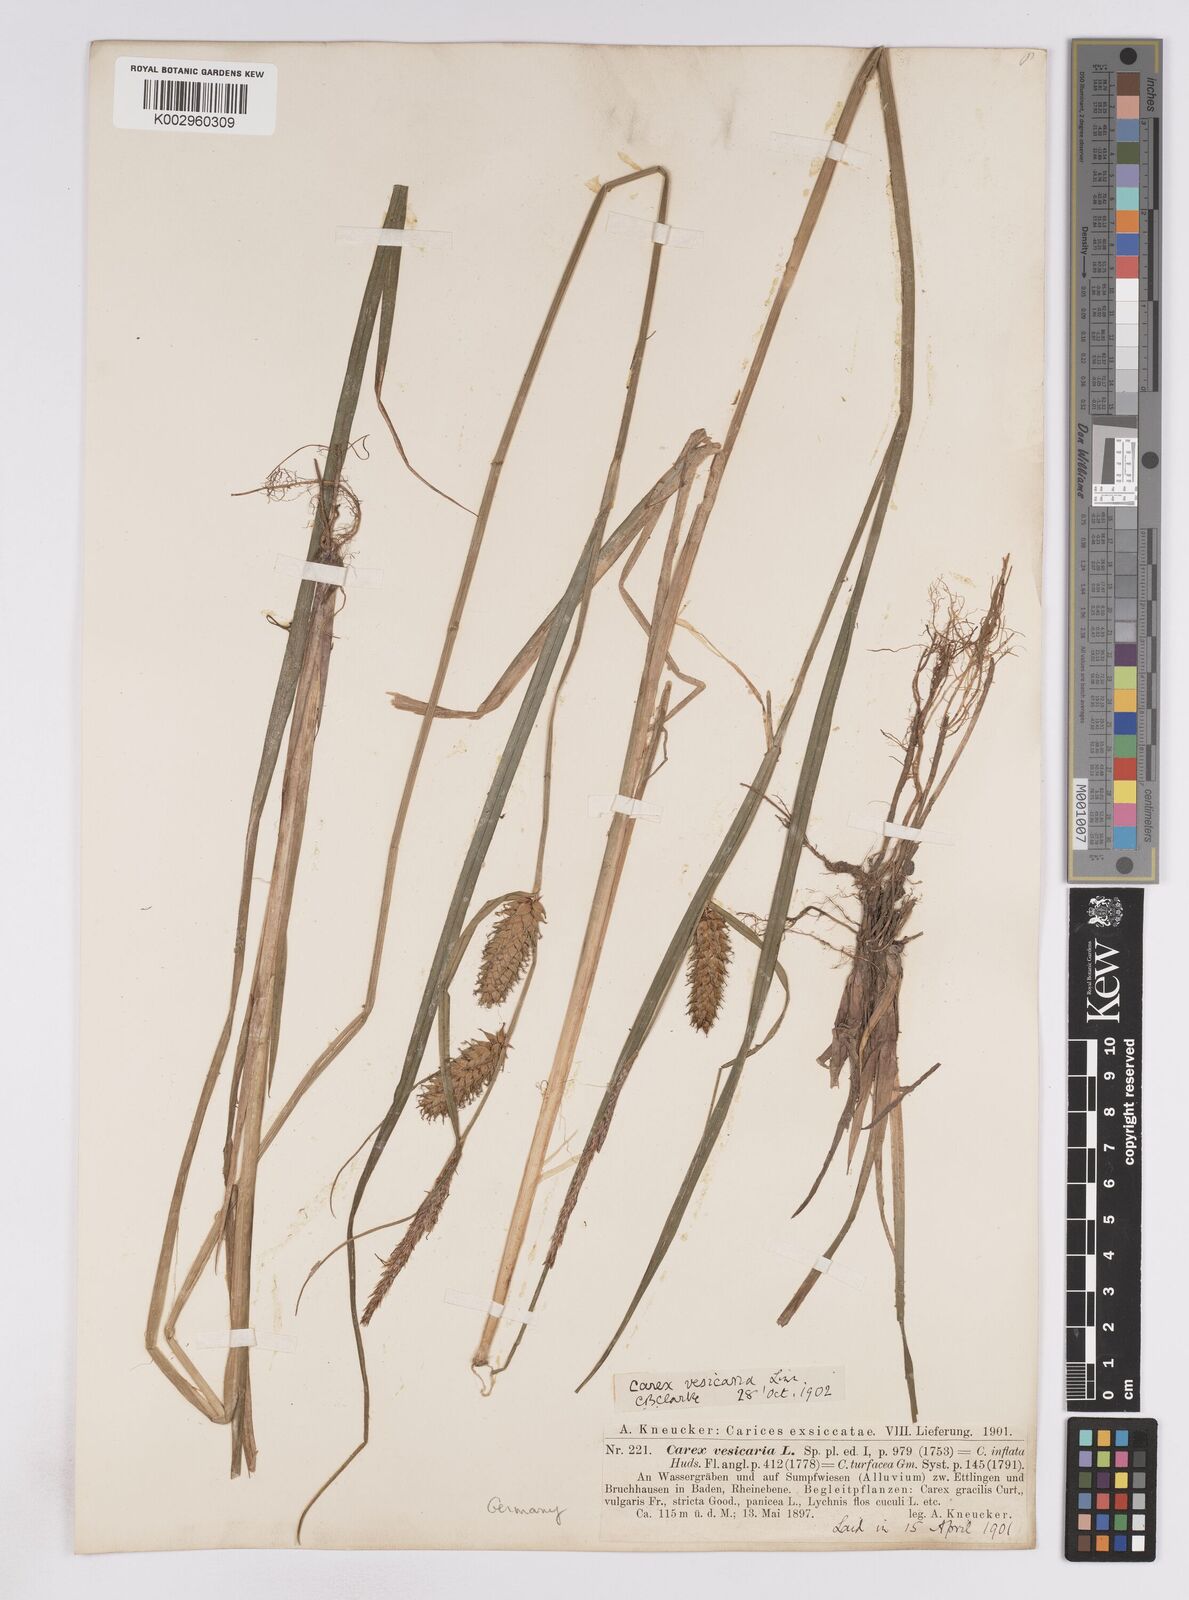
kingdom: Plantae
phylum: Tracheophyta
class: Liliopsida
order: Poales
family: Cyperaceae
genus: Carex
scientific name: Carex vesicaria
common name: Bladder-sedge
